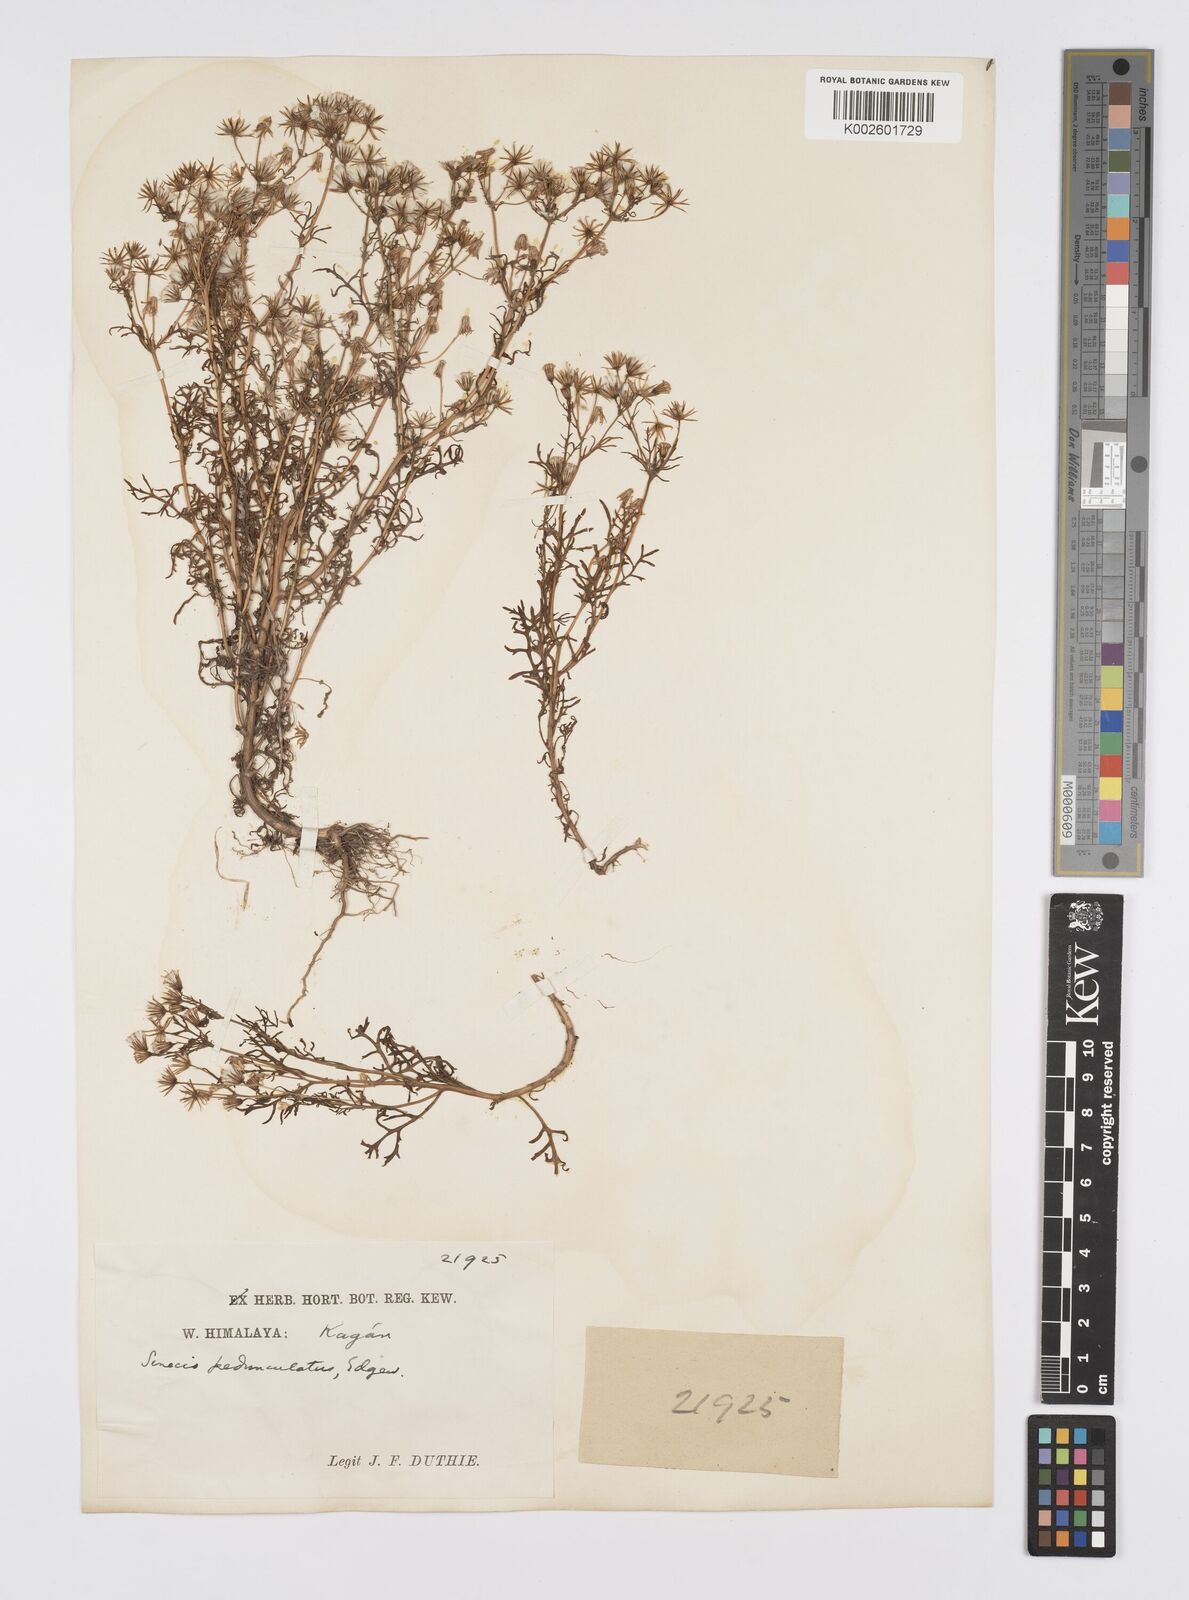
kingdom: Plantae
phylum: Tracheophyta
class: Magnoliopsida
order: Asterales
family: Asteraceae
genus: Senecio
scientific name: Senecio krascheninnikovii
